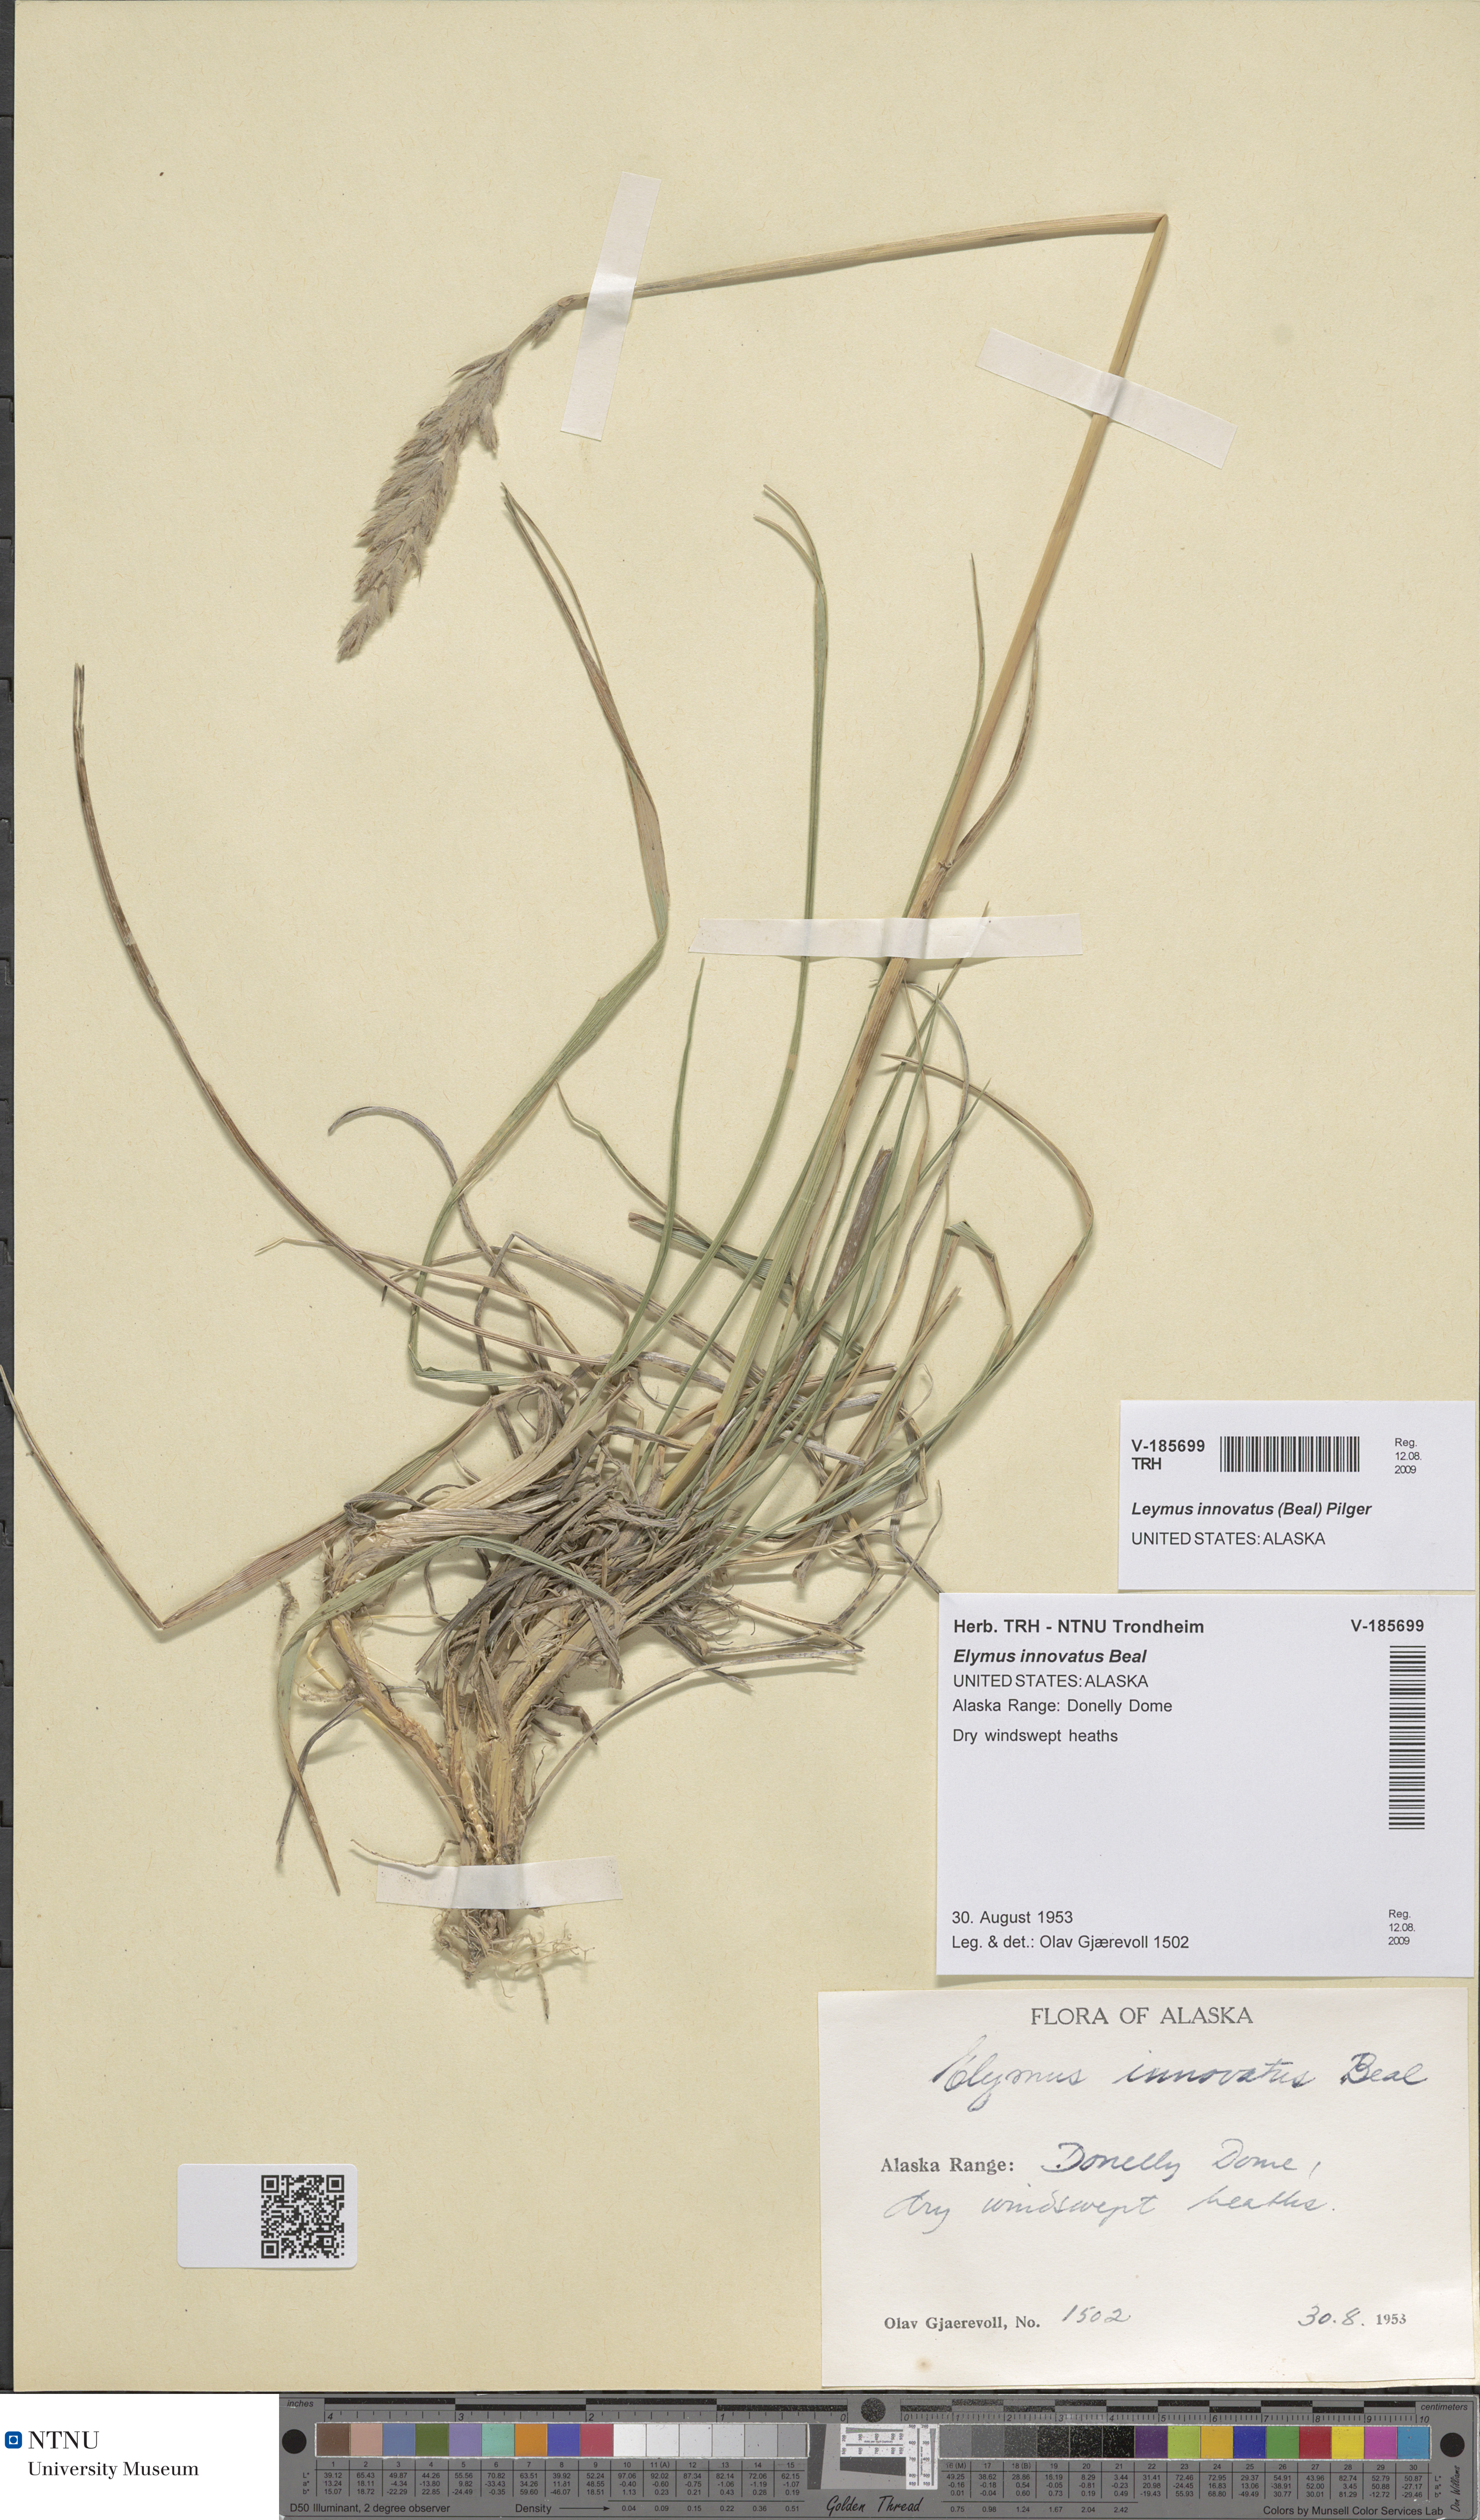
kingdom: Plantae
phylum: Tracheophyta
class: Liliopsida
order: Poales
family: Poaceae
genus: Leymus
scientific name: Leymus innovatus
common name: Boreal wild rye
